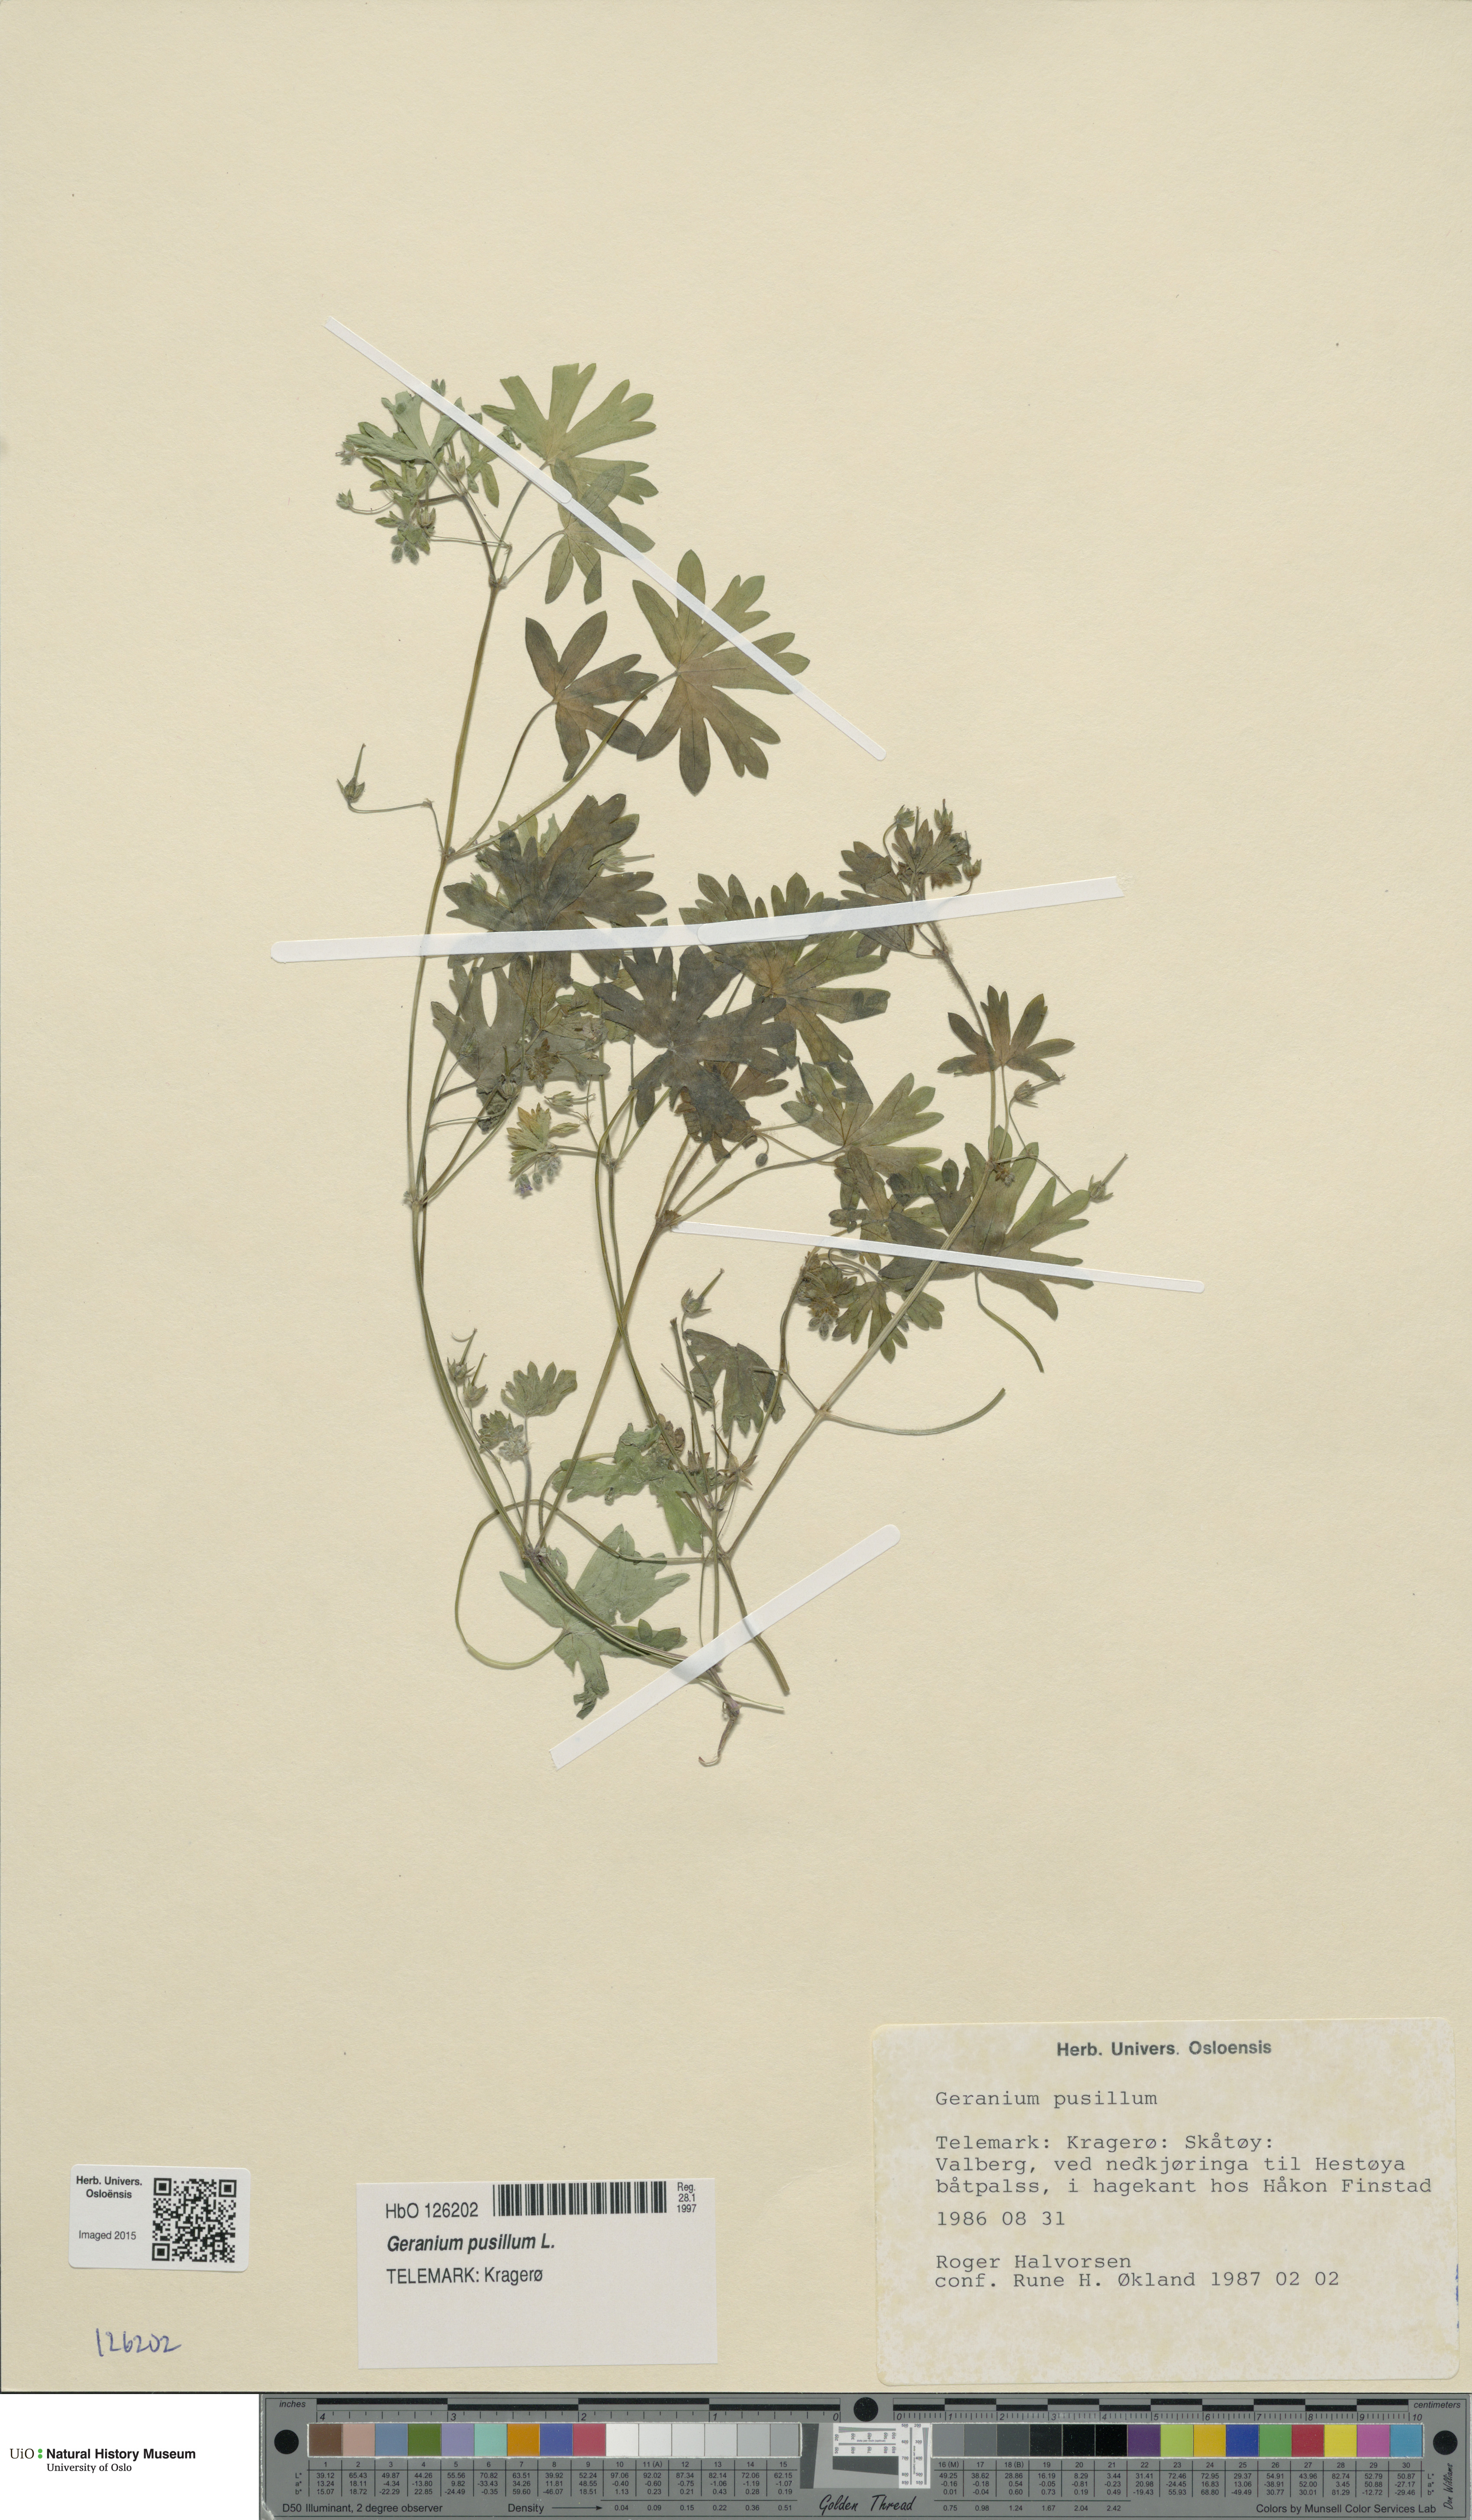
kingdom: Plantae
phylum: Tracheophyta
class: Magnoliopsida
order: Geraniales
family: Geraniaceae
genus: Geranium
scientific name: Geranium pusillum
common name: Small geranium
